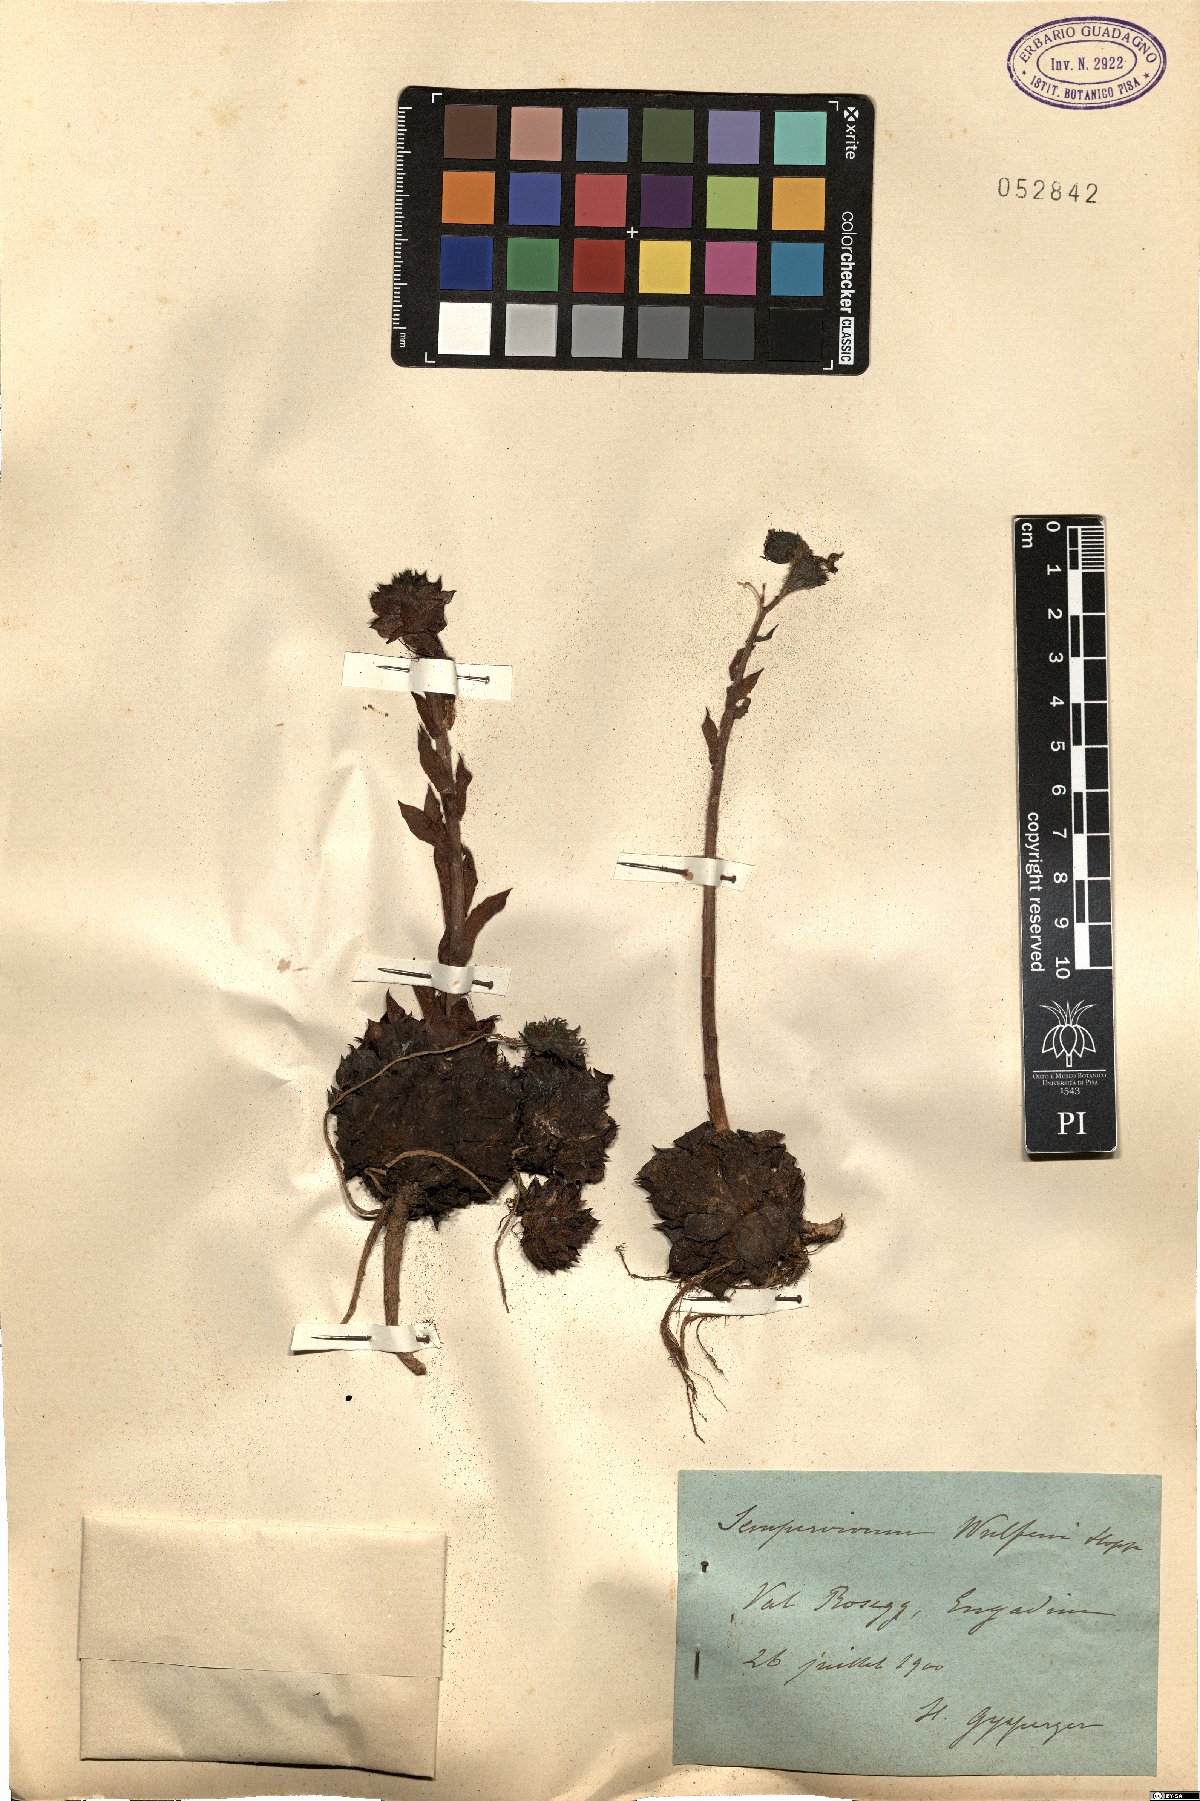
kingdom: Plantae
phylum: Tracheophyta
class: Magnoliopsida
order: Saxifragales
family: Crassulaceae
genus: Sempervivum
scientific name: Sempervivum wulfenii
